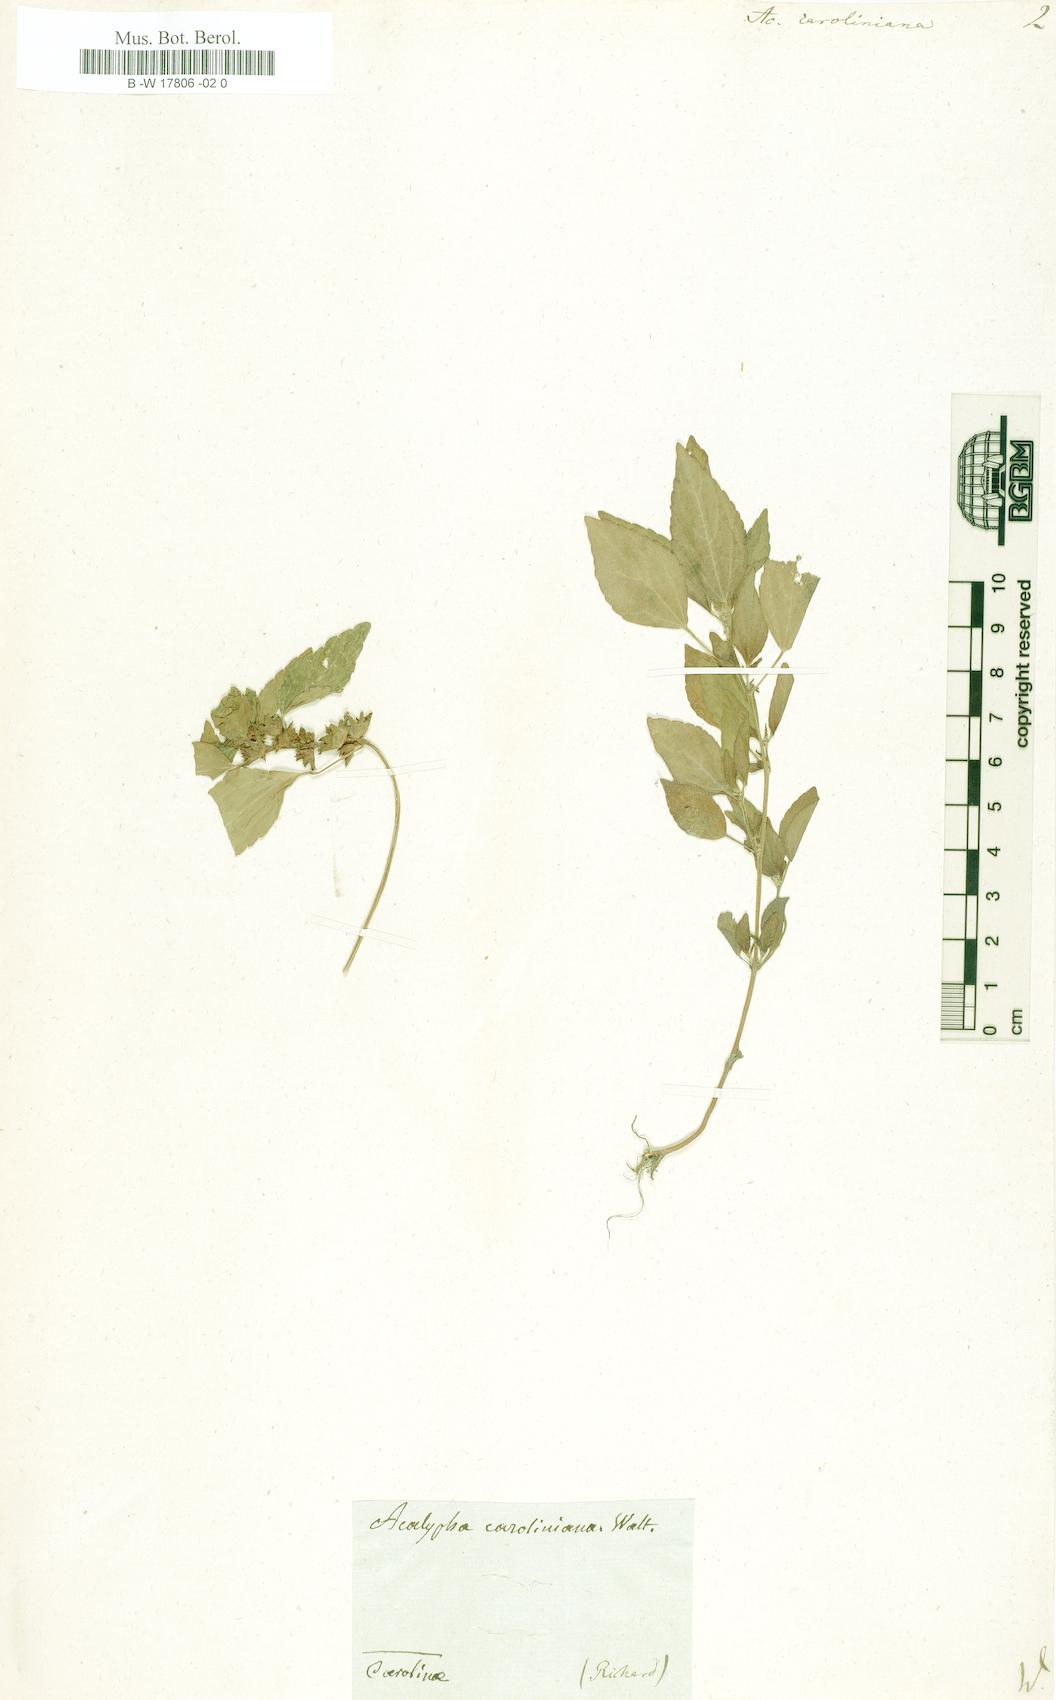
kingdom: Plantae
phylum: Tracheophyta
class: Magnoliopsida
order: Malpighiales
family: Euphorbiaceae
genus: Acalypha
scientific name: Acalypha virginica
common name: Virginia copperleaf
